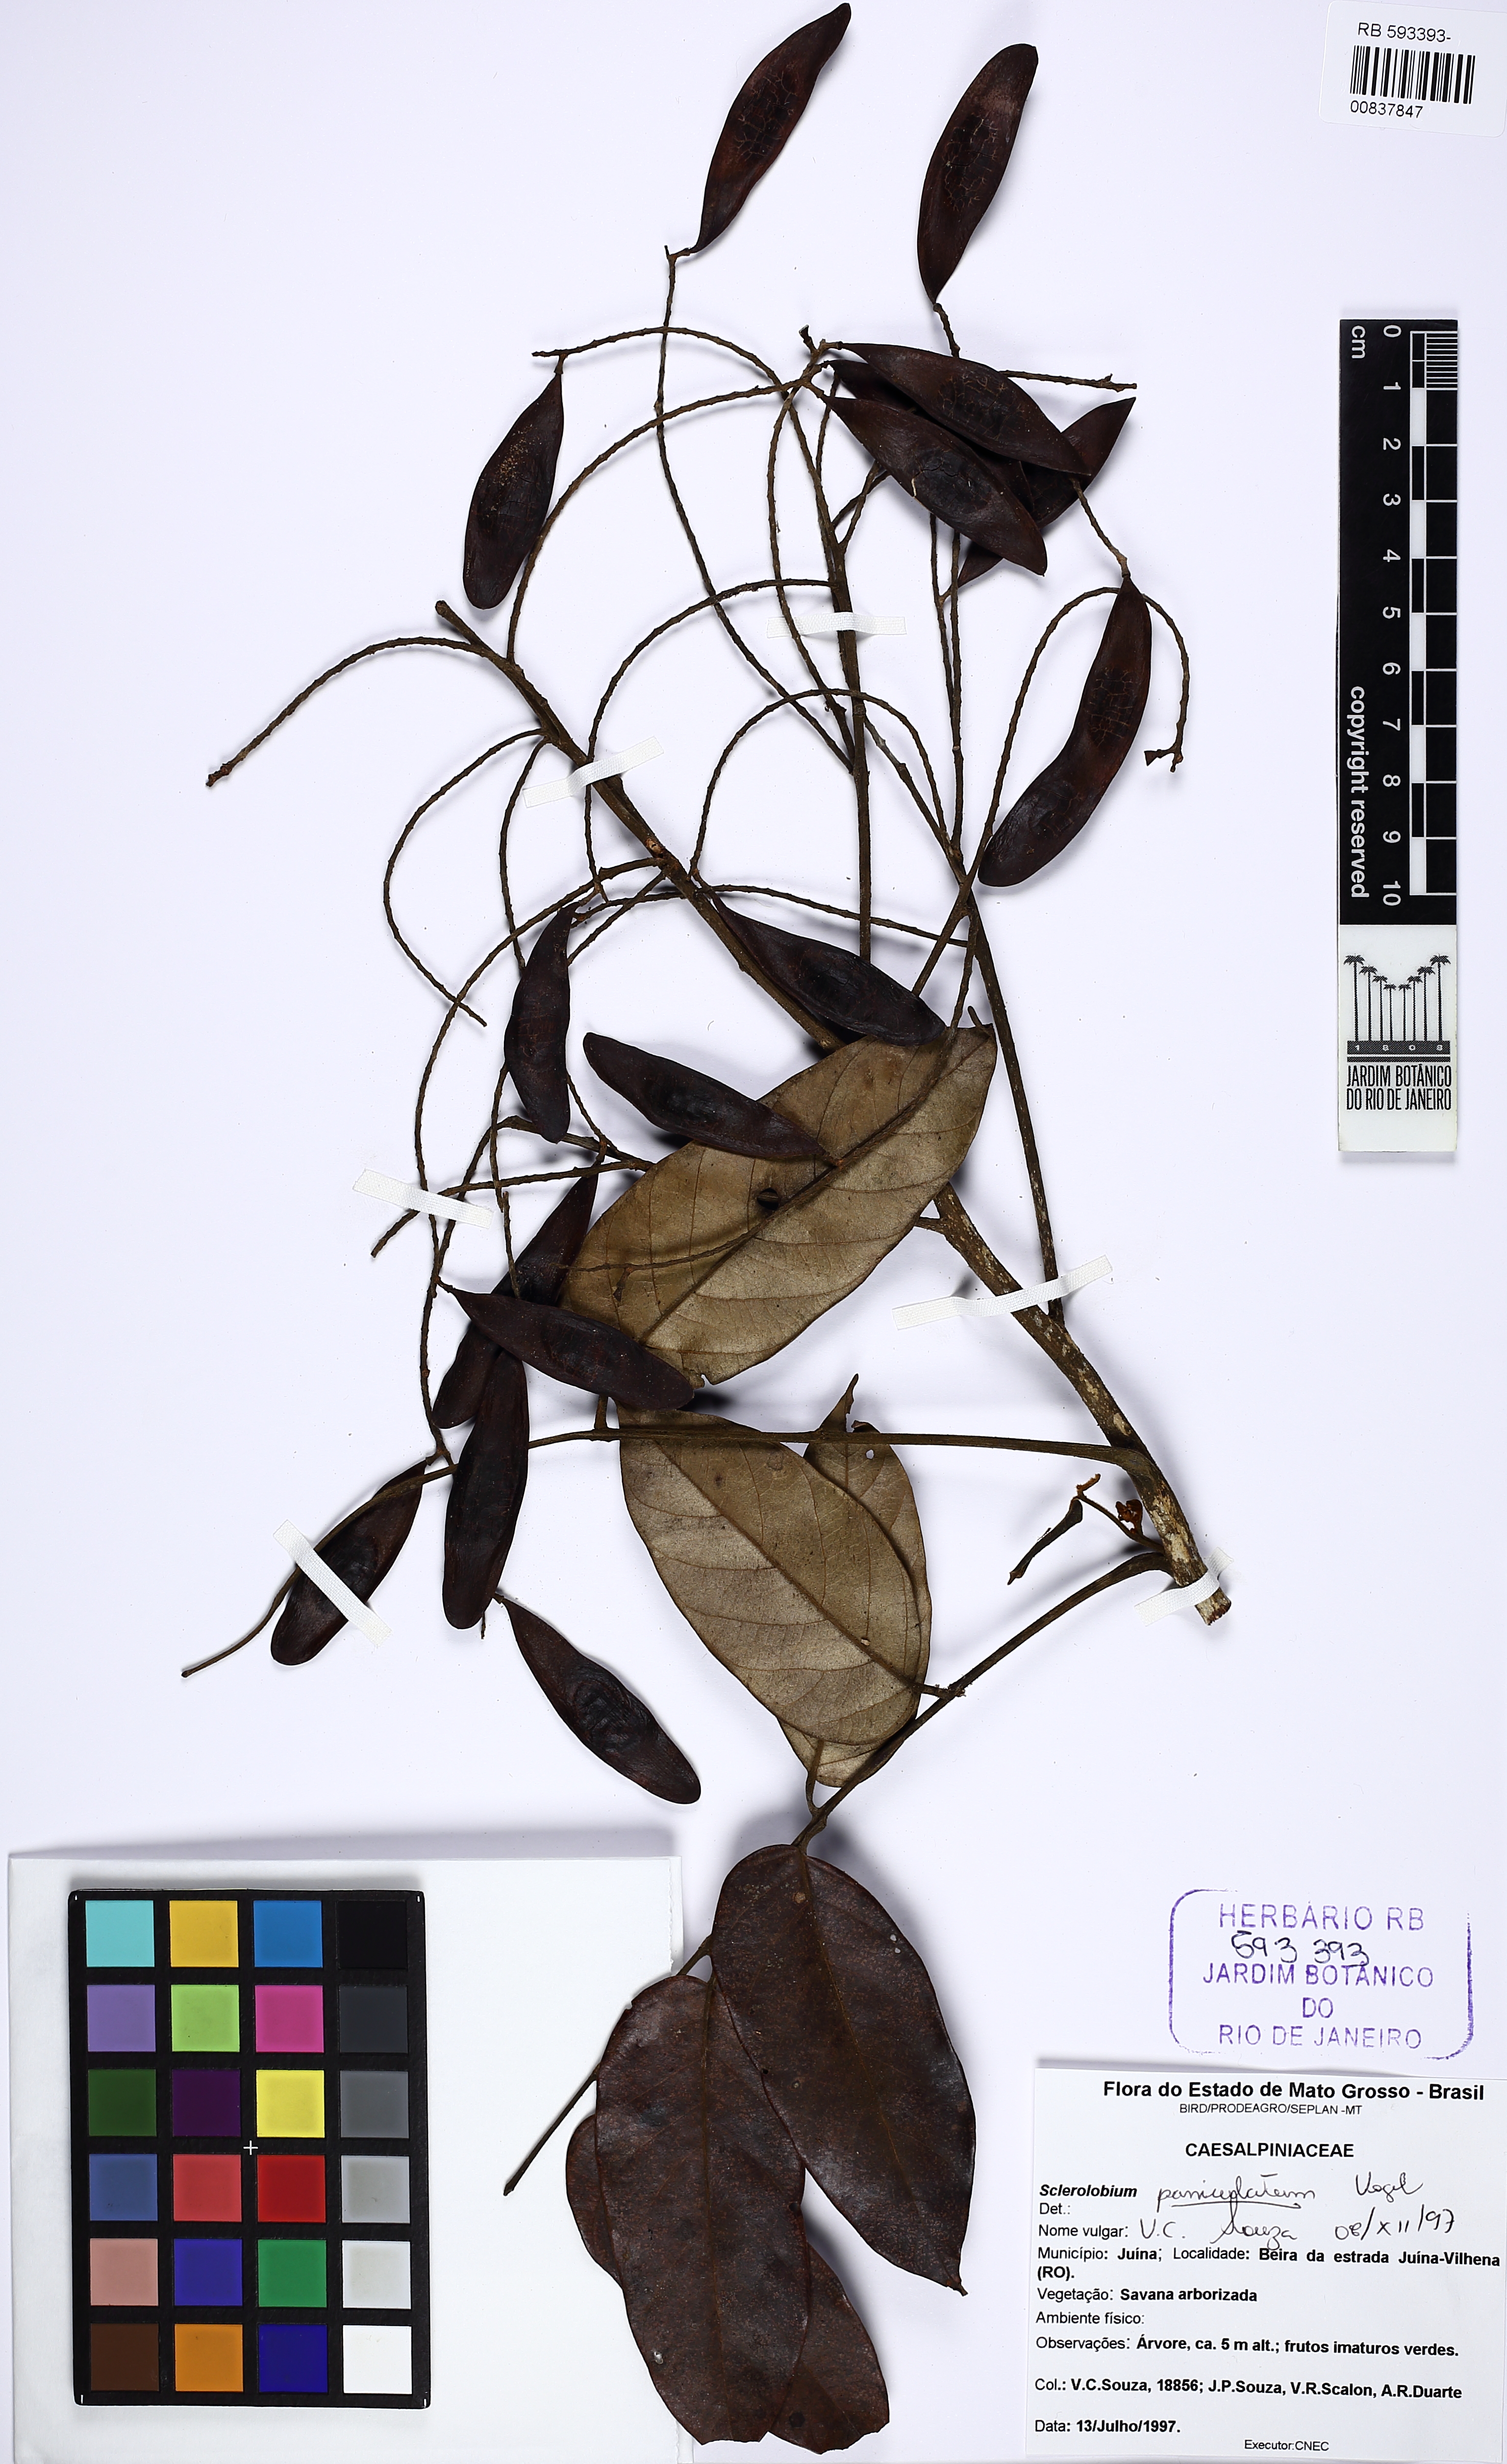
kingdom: Plantae
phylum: Tracheophyta
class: Magnoliopsida
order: Fabales
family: Fabaceae
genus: Tachigali
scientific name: Tachigali vulgaris
